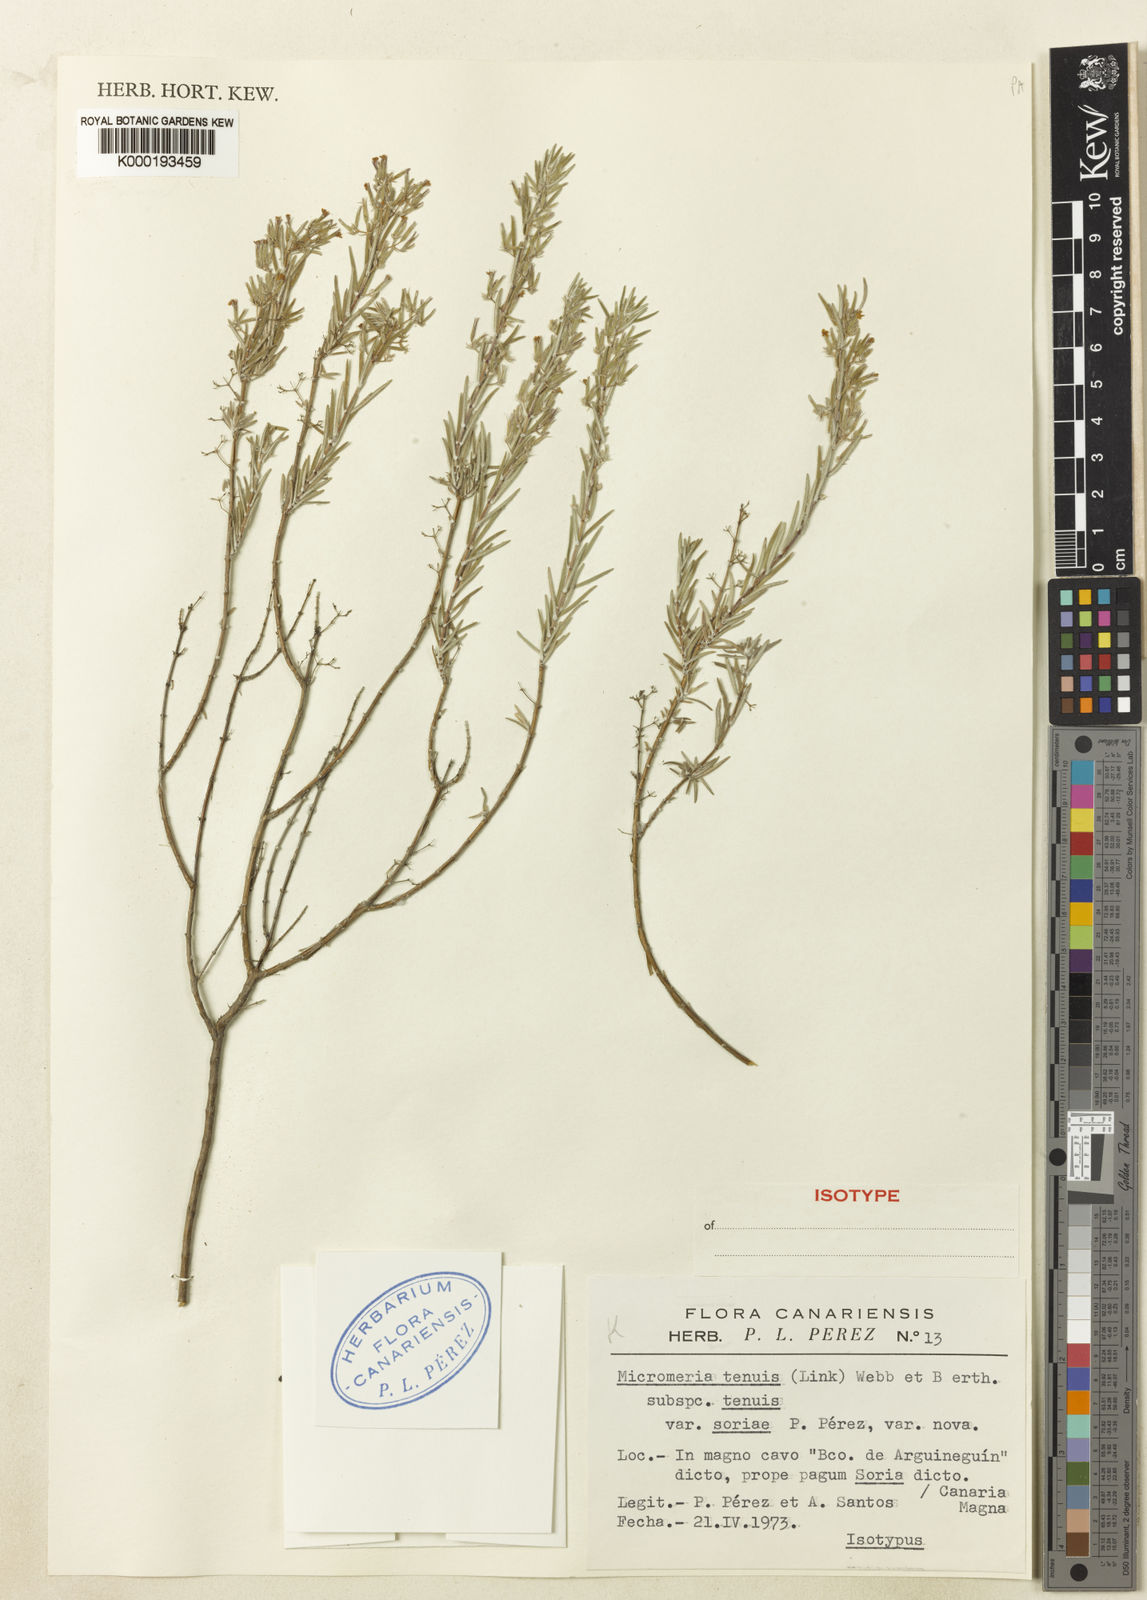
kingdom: Plantae
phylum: Tracheophyta
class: Magnoliopsida
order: Lamiales
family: Lamiaceae
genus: Micromeria
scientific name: Micromeria tenuis
